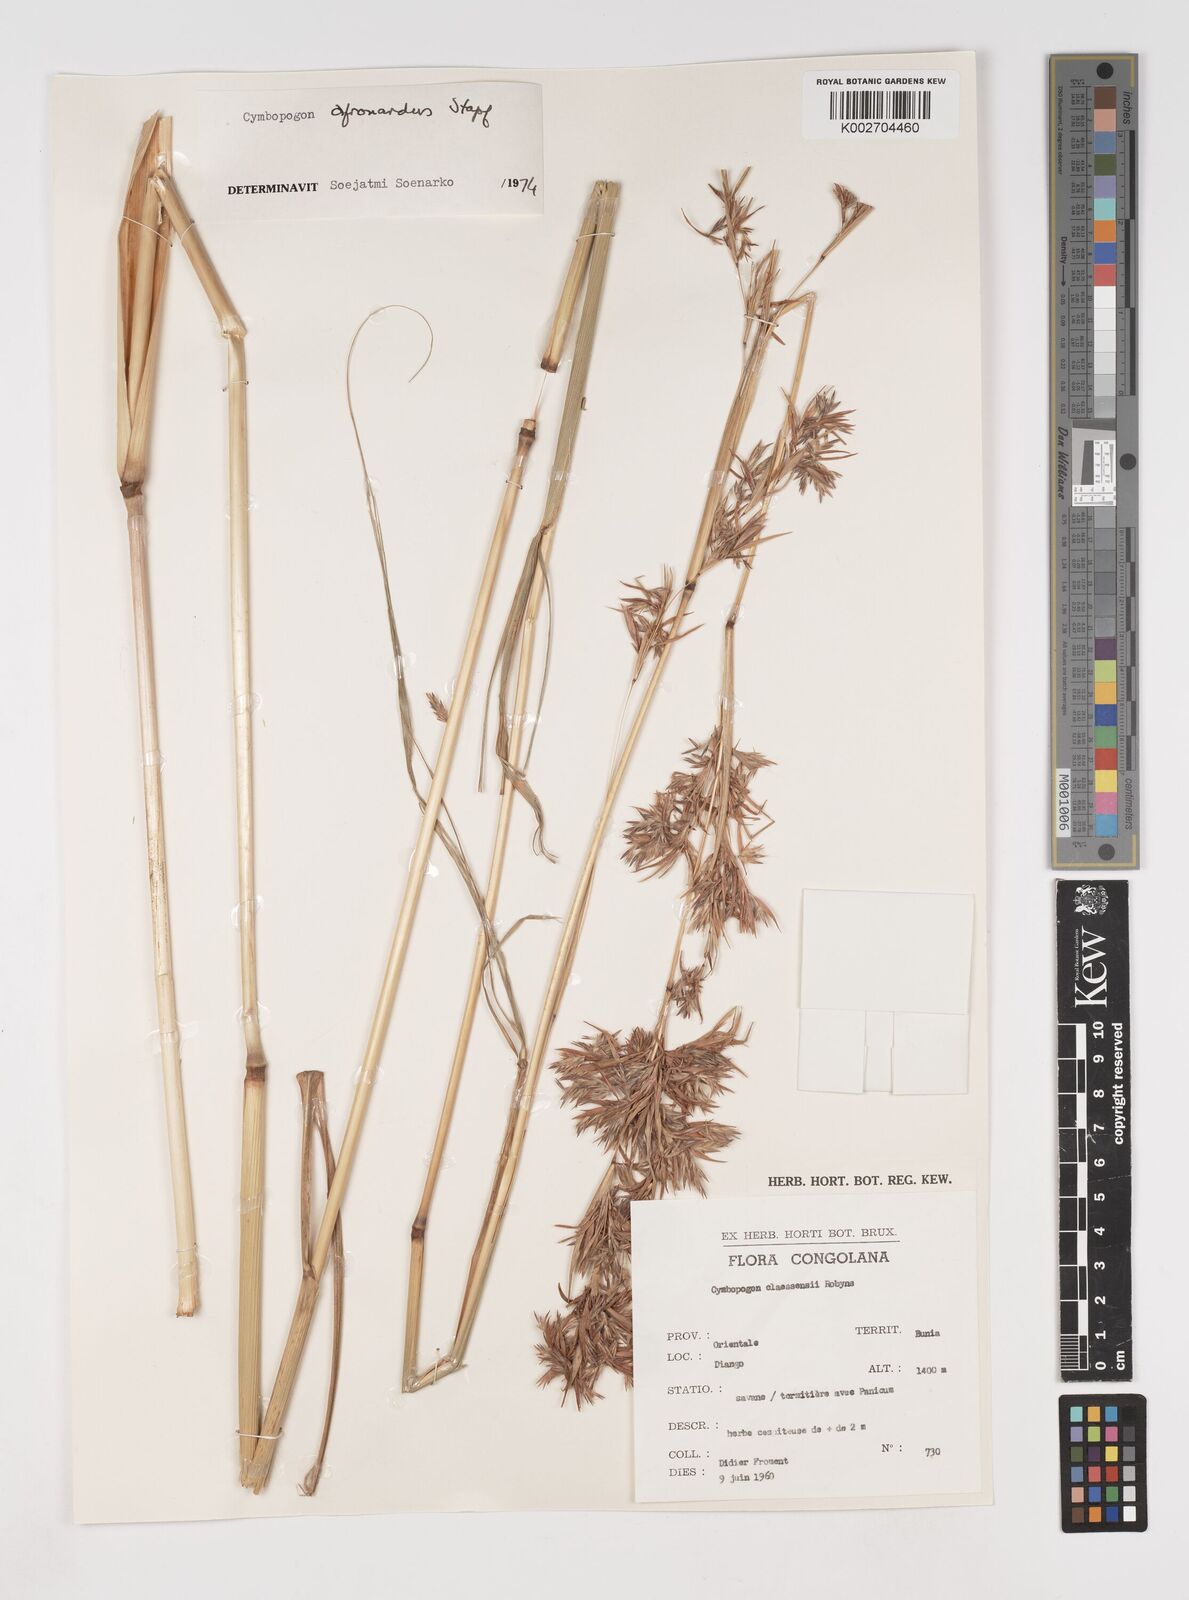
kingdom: Plantae
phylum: Tracheophyta
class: Liliopsida
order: Poales
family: Poaceae
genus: Cymbopogon
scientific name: Cymbopogon nardus
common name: Giant turpentine grass
